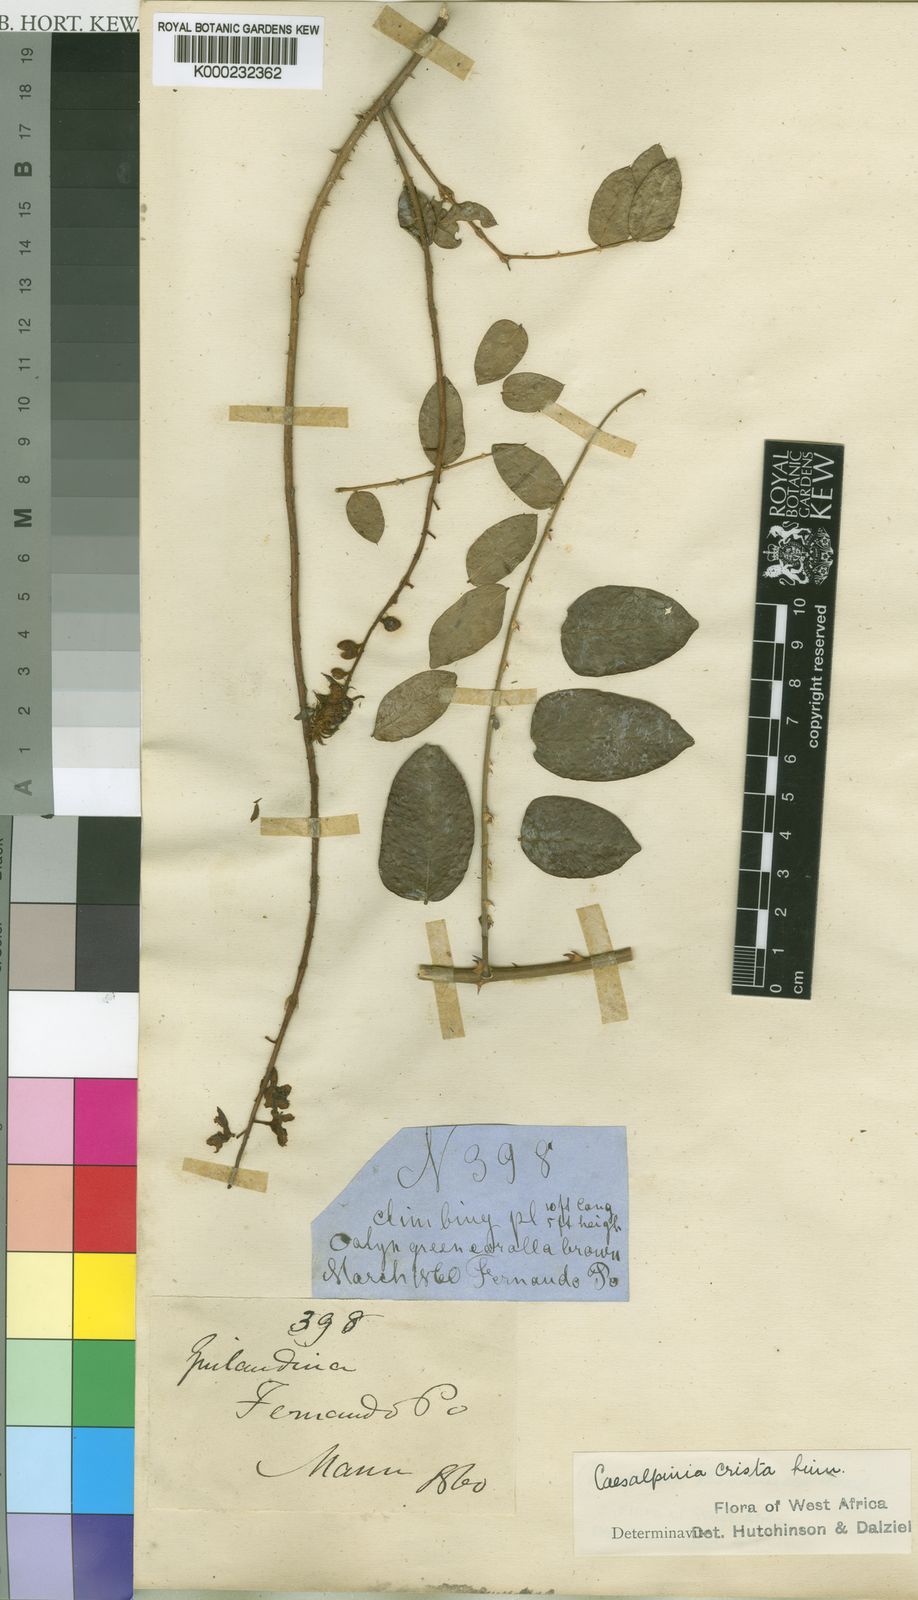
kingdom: Plantae
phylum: Tracheophyta
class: Magnoliopsida
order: Fabales
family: Fabaceae
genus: Guilandina
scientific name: Guilandina bonduc
